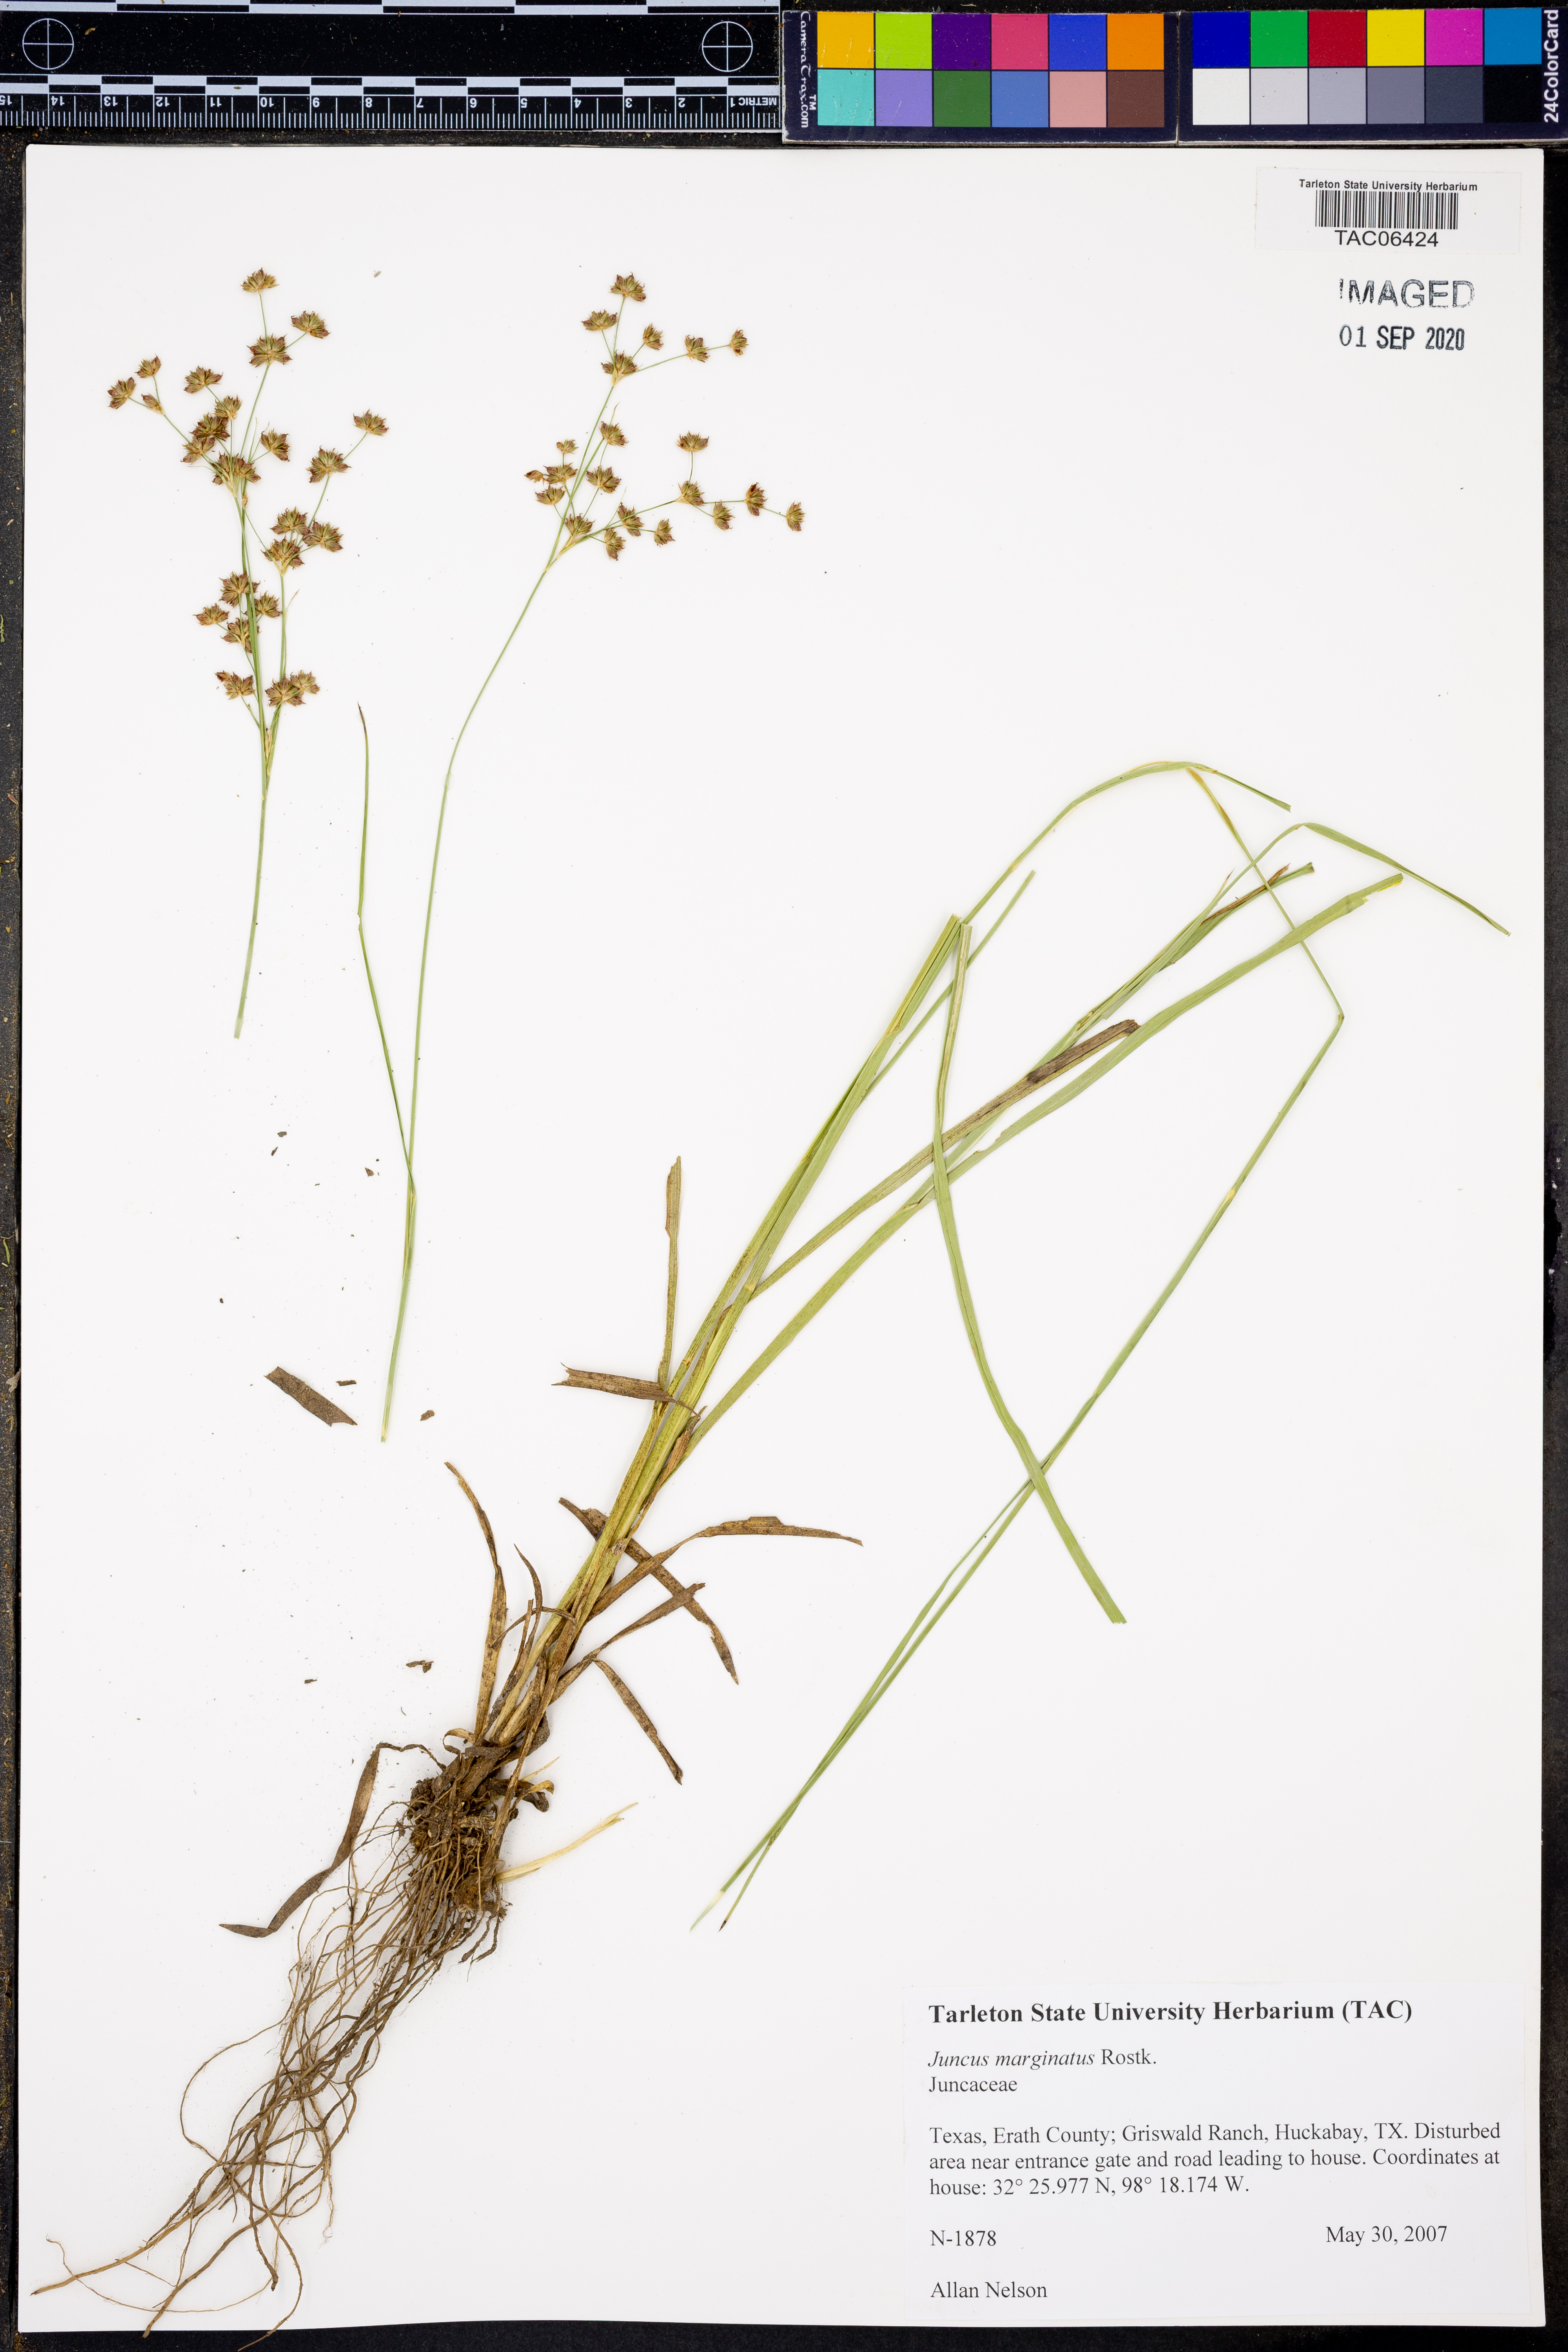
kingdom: Plantae
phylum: Tracheophyta
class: Liliopsida
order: Poales
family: Juncaceae
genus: Juncus
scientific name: Juncus marginatus
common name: Grass-leaf rush
